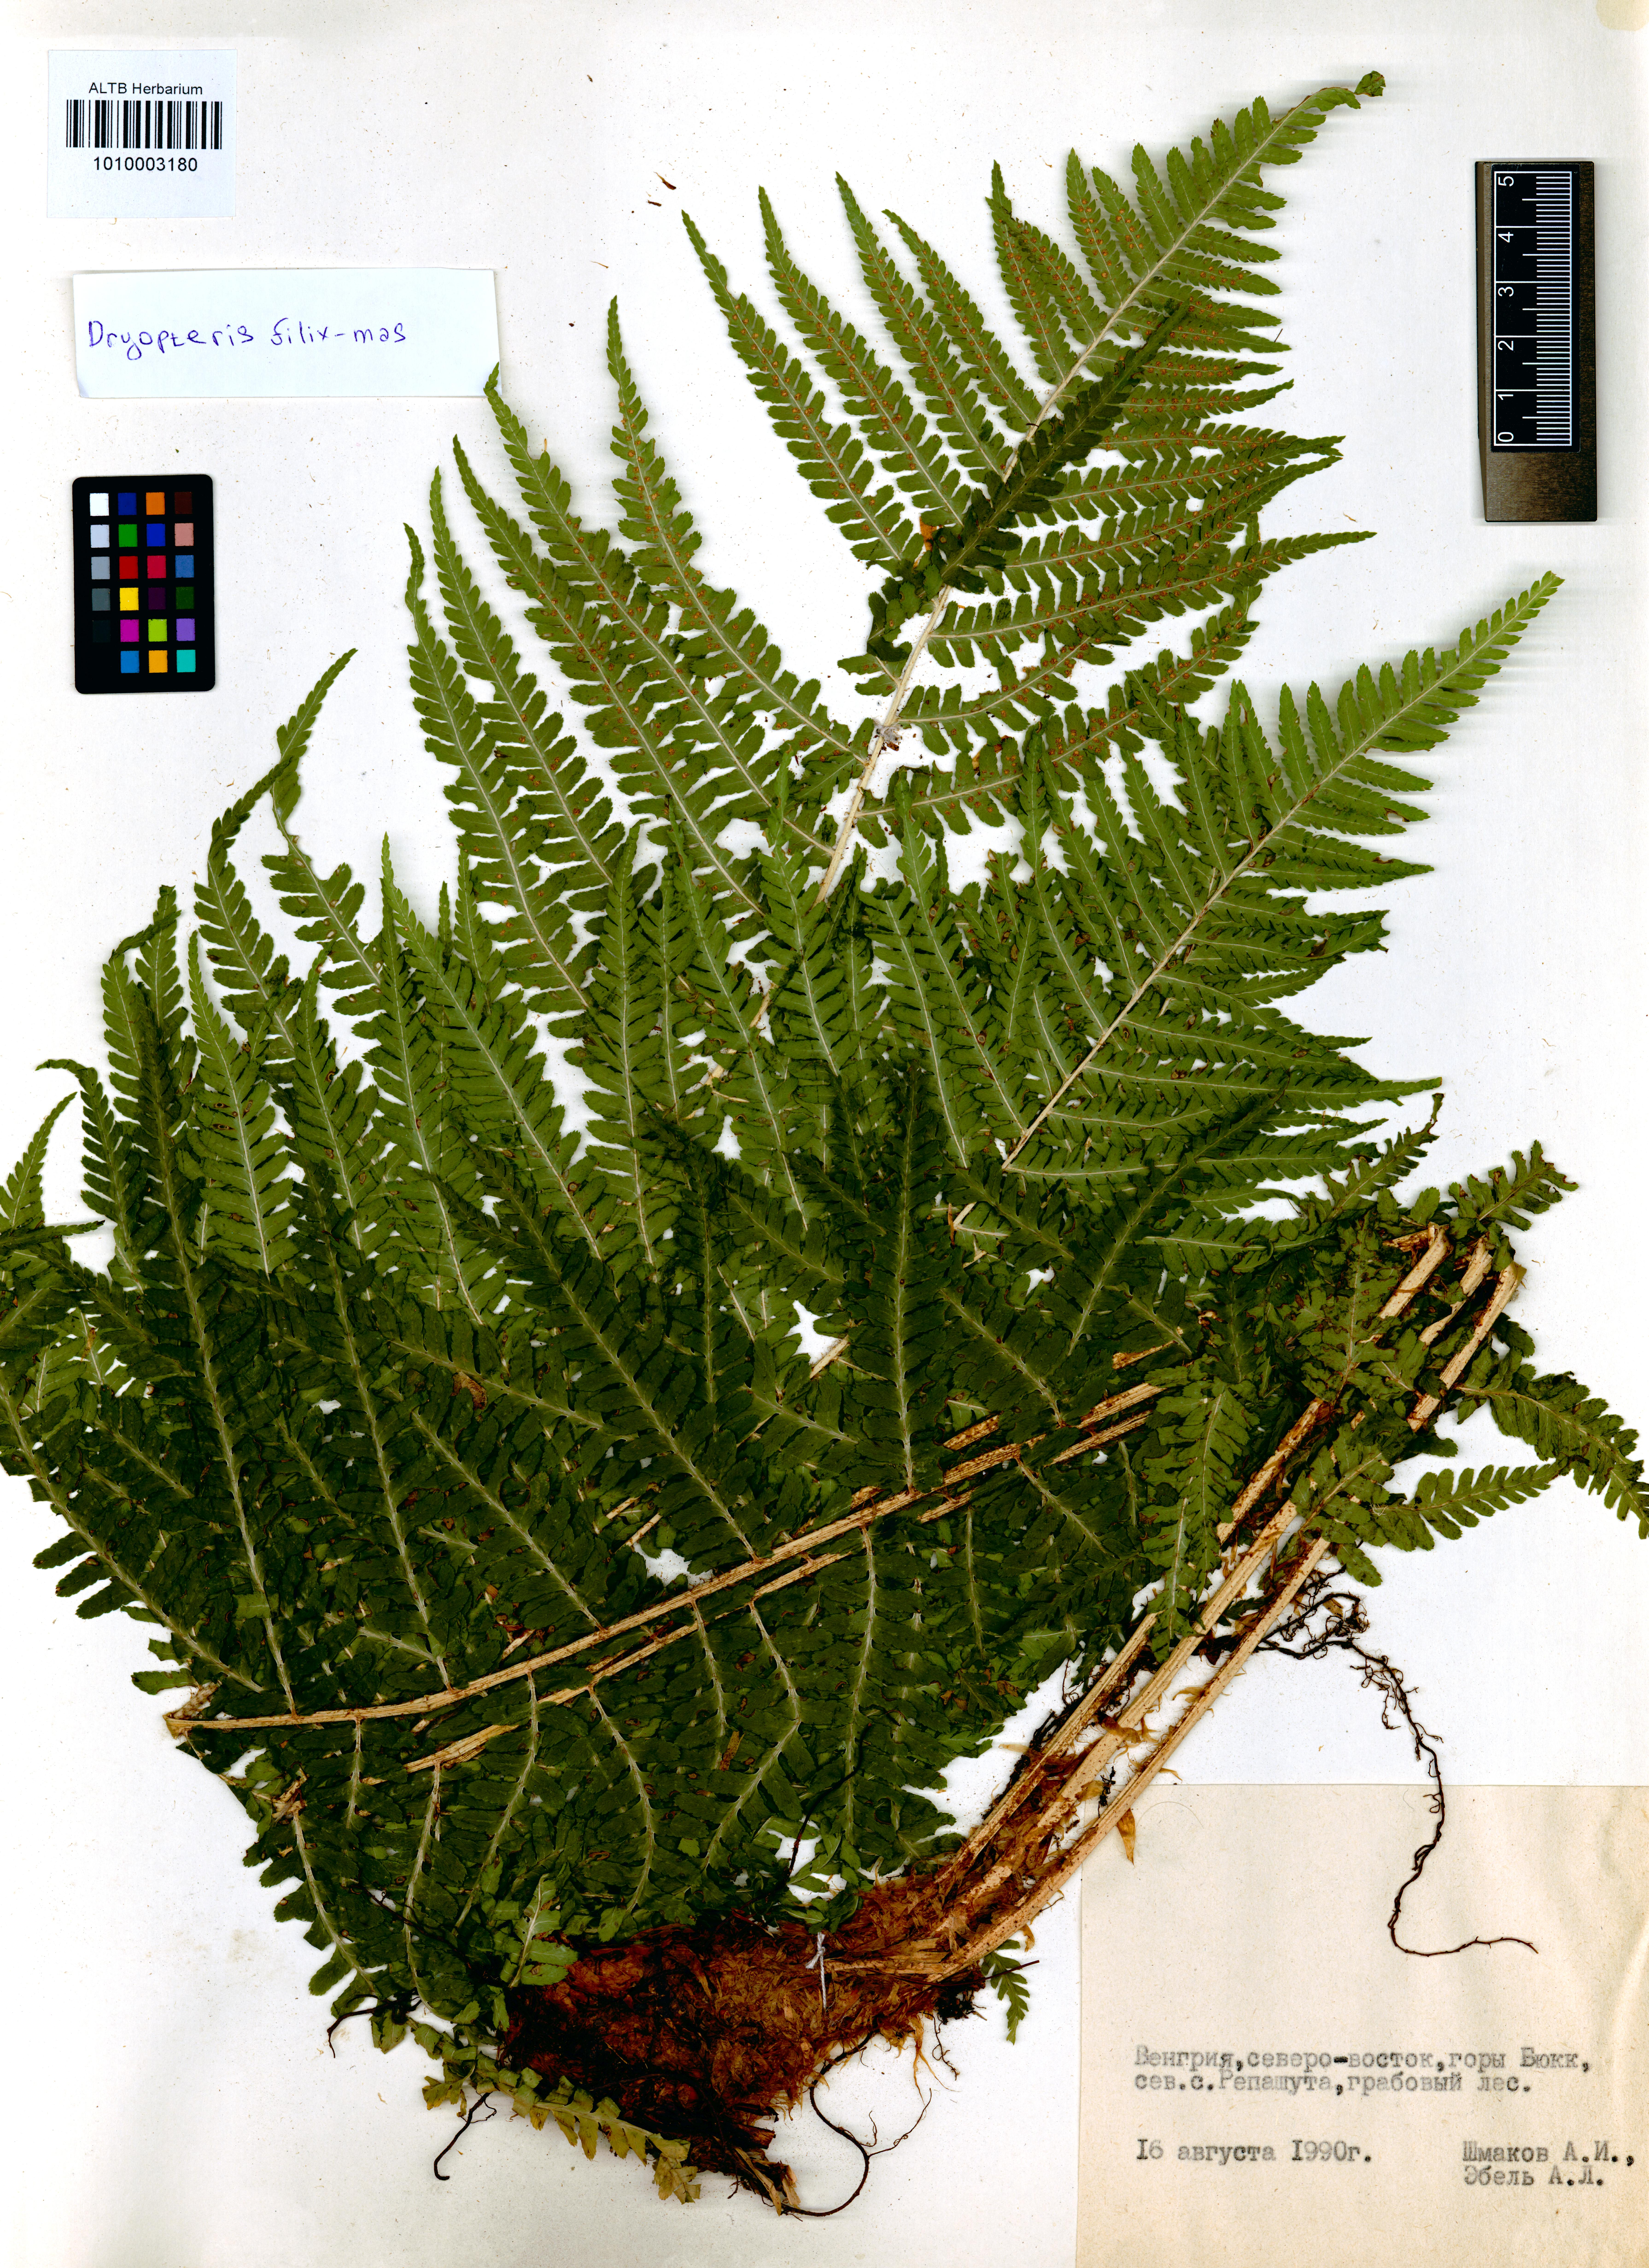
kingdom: Plantae
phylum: Tracheophyta
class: Polypodiopsida
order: Polypodiales
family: Dryopteridaceae
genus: Dryopteris
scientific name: Dryopteris filix-mas
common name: Male fern
